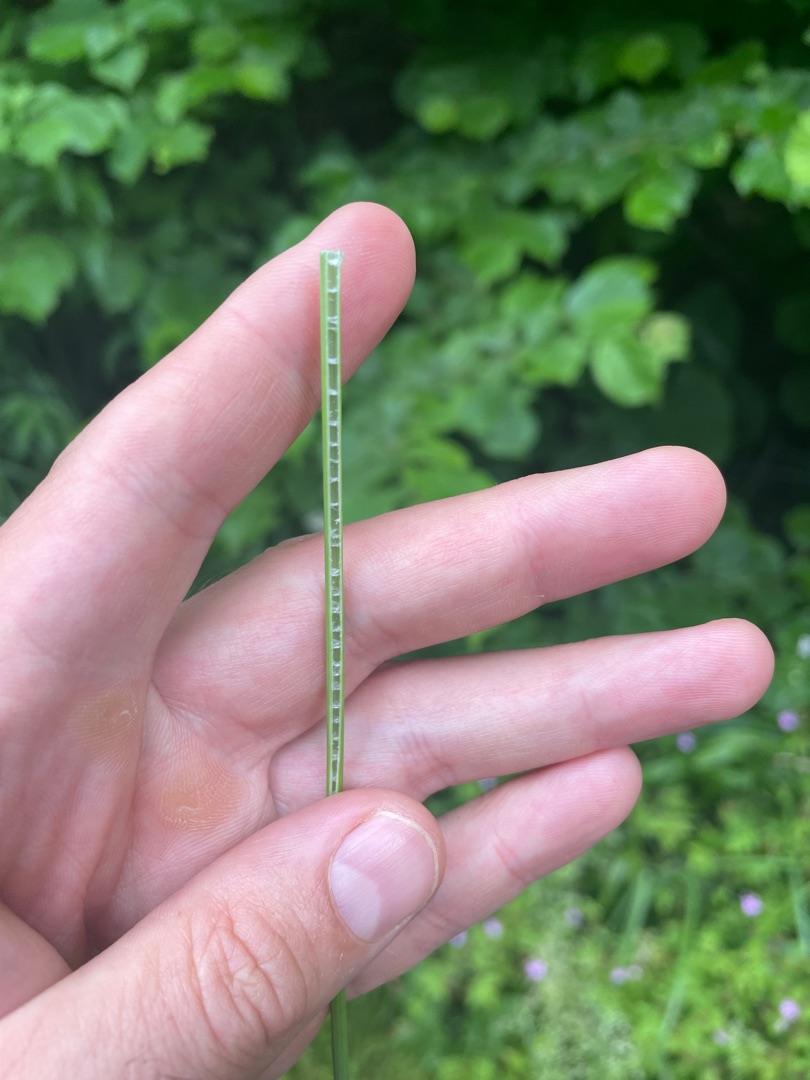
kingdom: Plantae
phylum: Tracheophyta
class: Liliopsida
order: Poales
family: Juncaceae
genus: Juncus
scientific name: Juncus inflexus
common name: Blågrå siv
